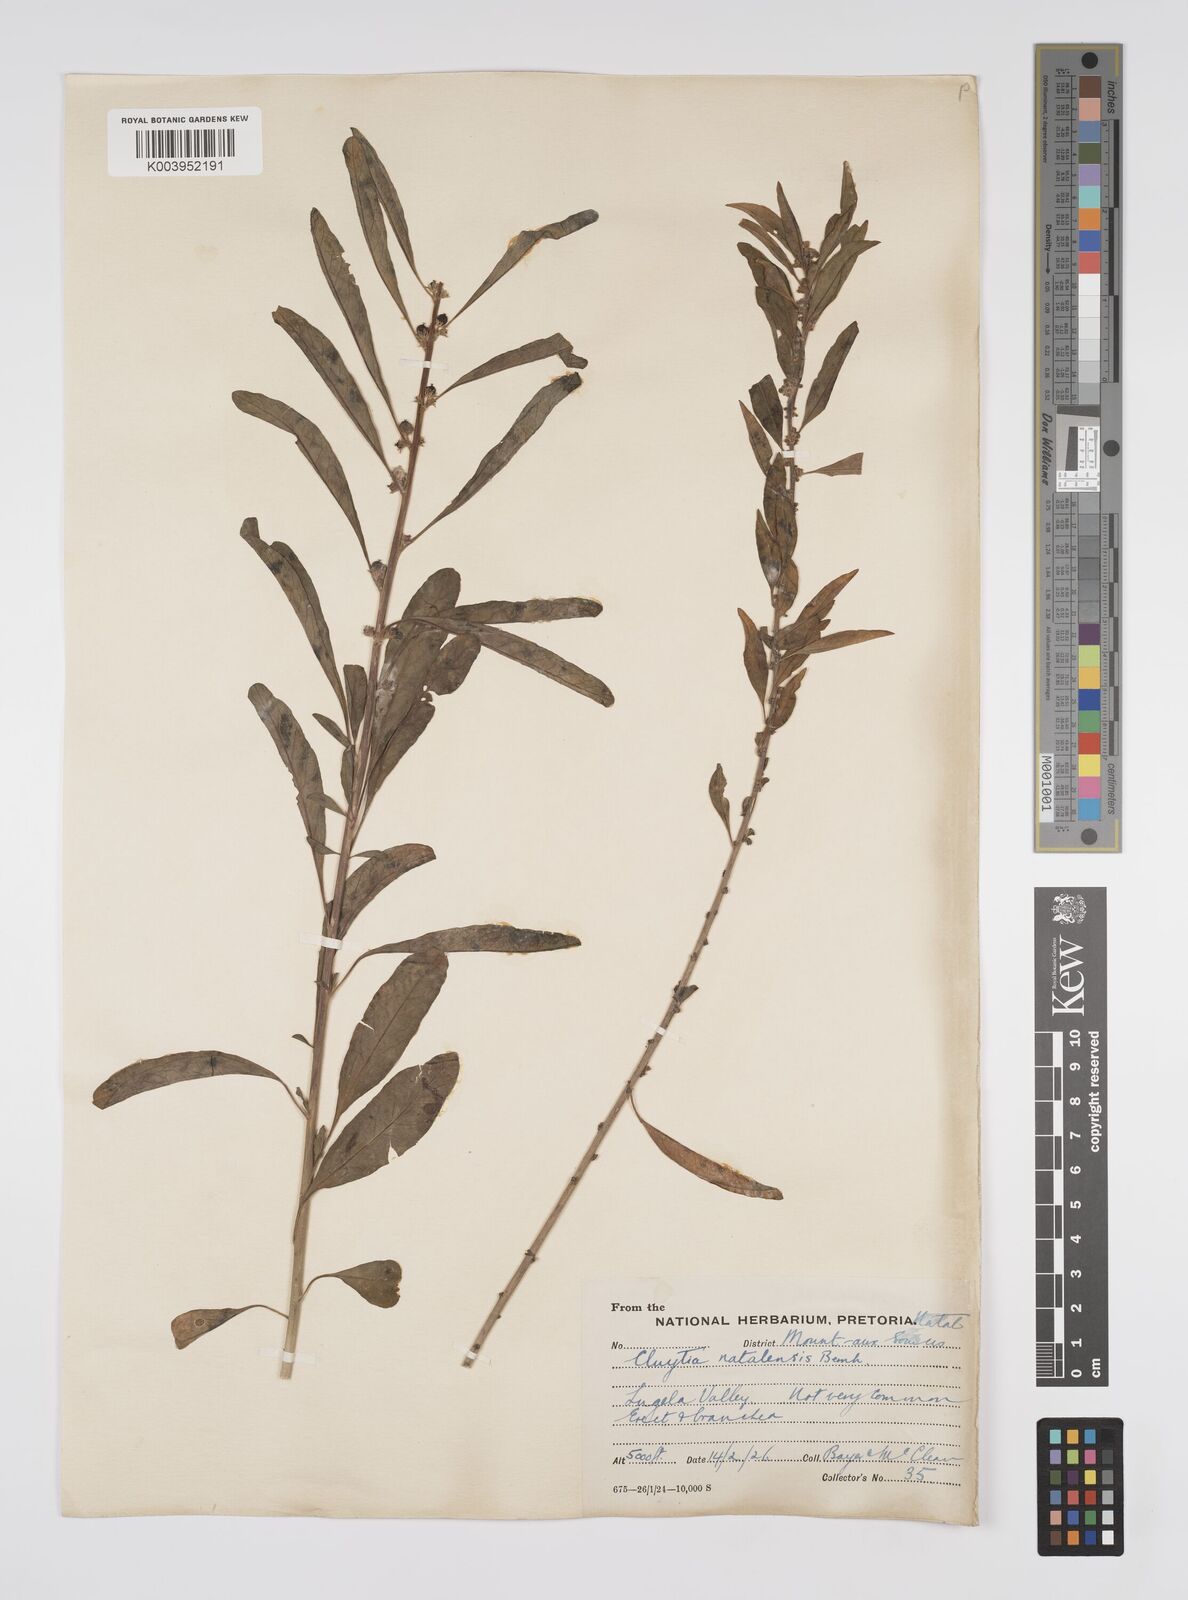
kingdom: Plantae
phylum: Tracheophyta
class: Magnoliopsida
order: Malpighiales
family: Peraceae
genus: Clutia
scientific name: Clutia natalensis
